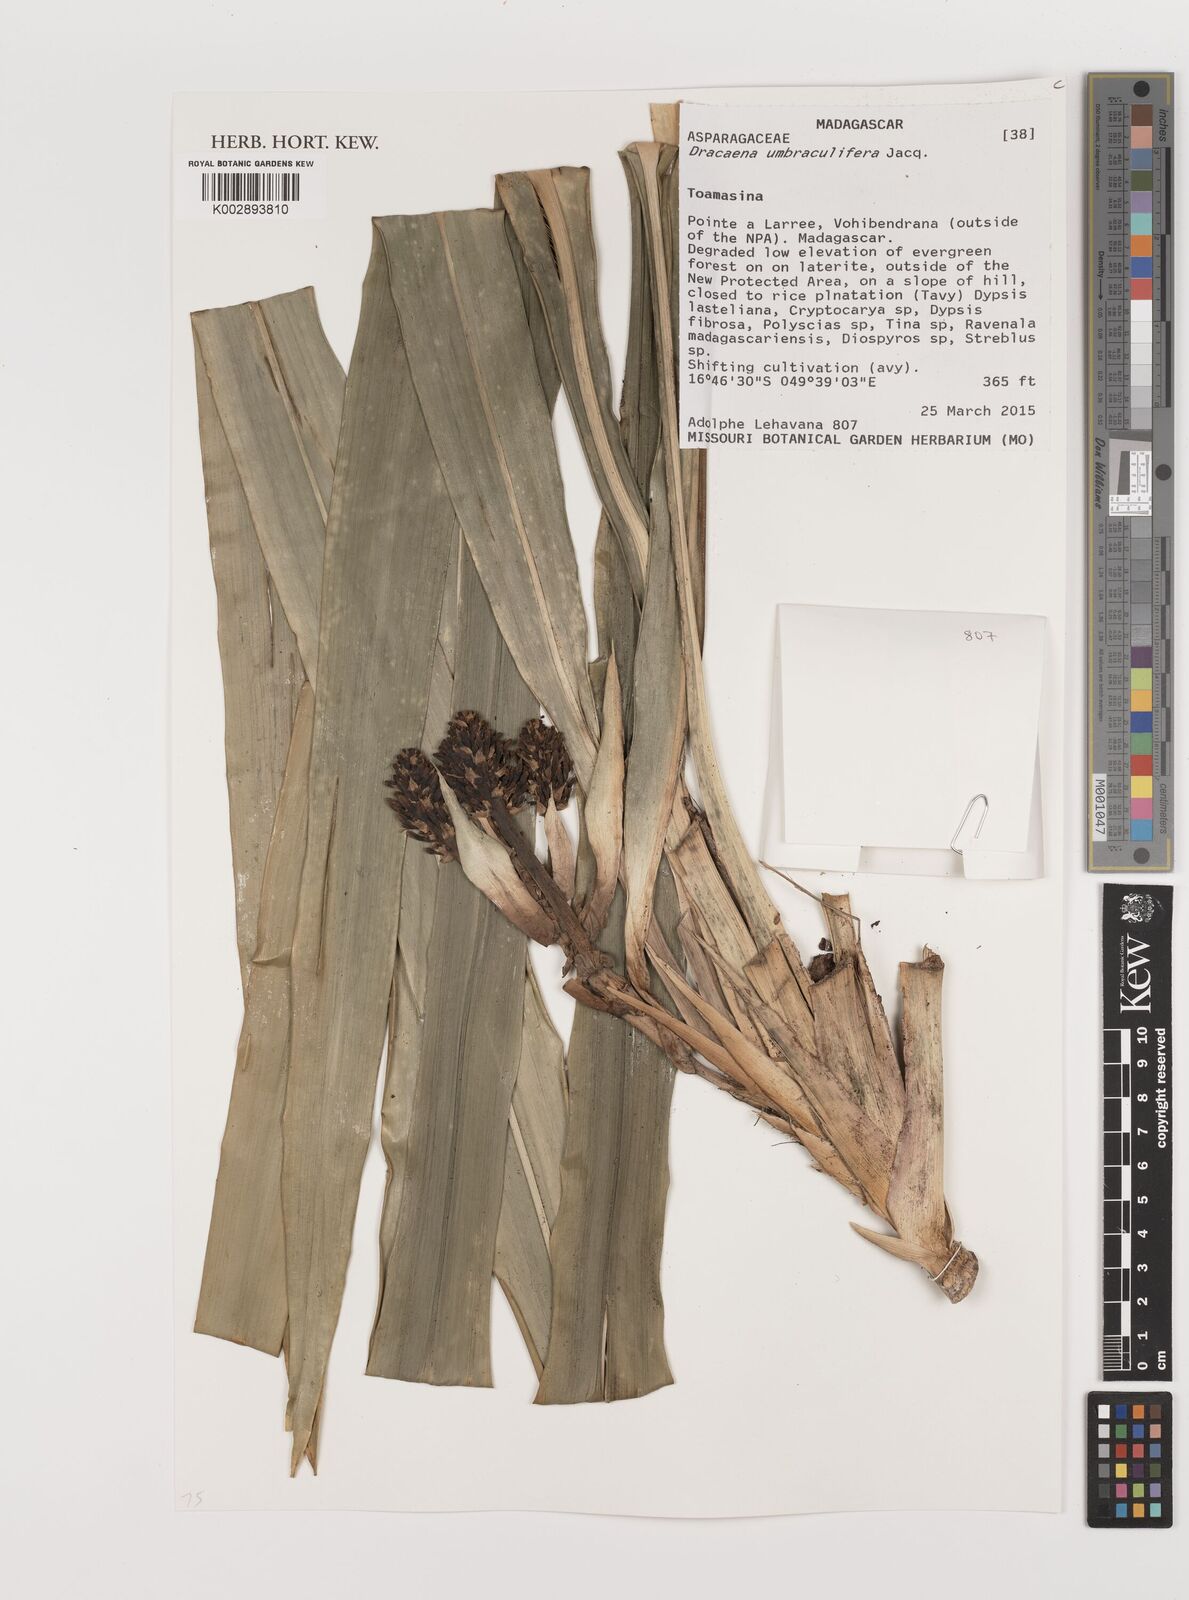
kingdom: Plantae
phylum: Tracheophyta
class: Liliopsida
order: Asparagales
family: Asparagaceae
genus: Dracaena
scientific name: Dracaena umbraculifera
